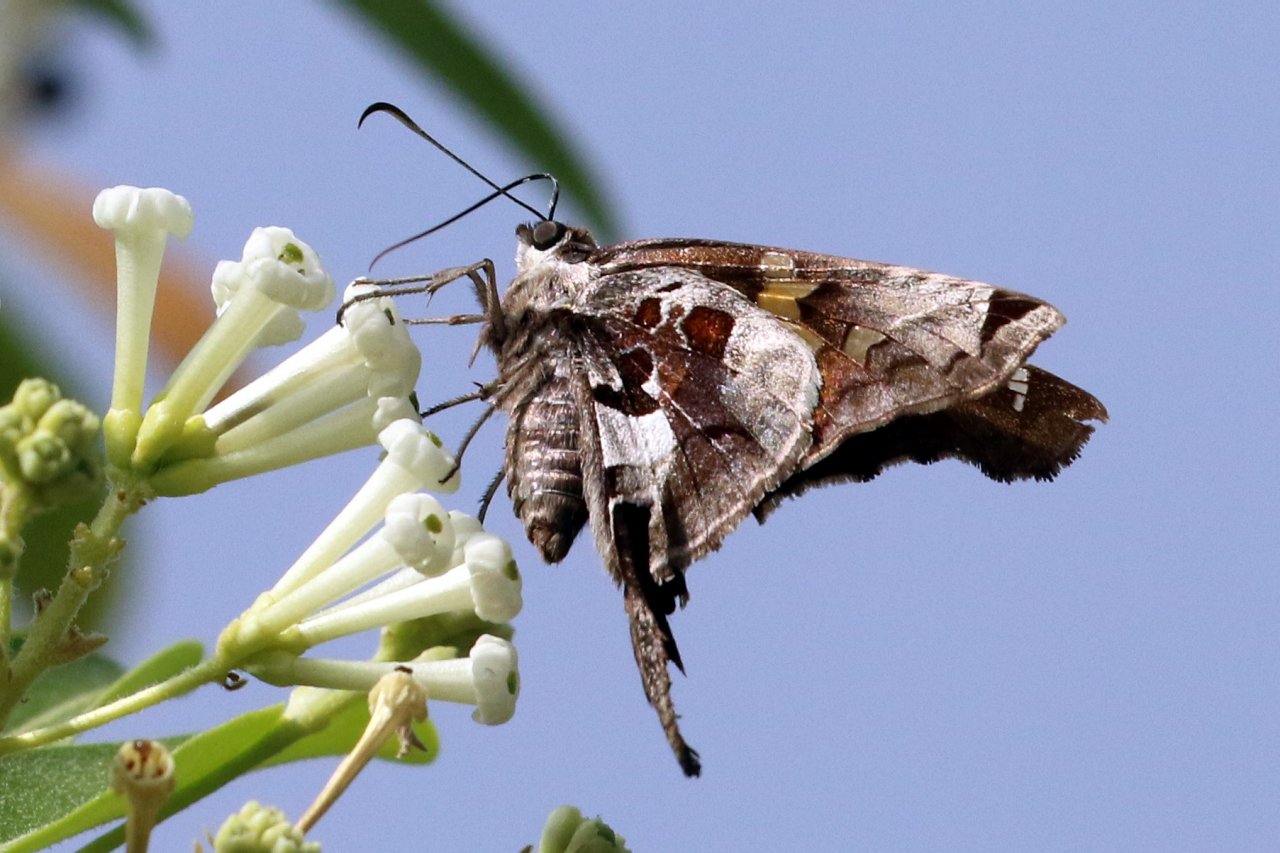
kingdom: Animalia
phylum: Arthropoda
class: Insecta
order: Lepidoptera
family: Hesperiidae
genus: Chioides
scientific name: Chioides zilpa
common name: Zilpa Longtail
